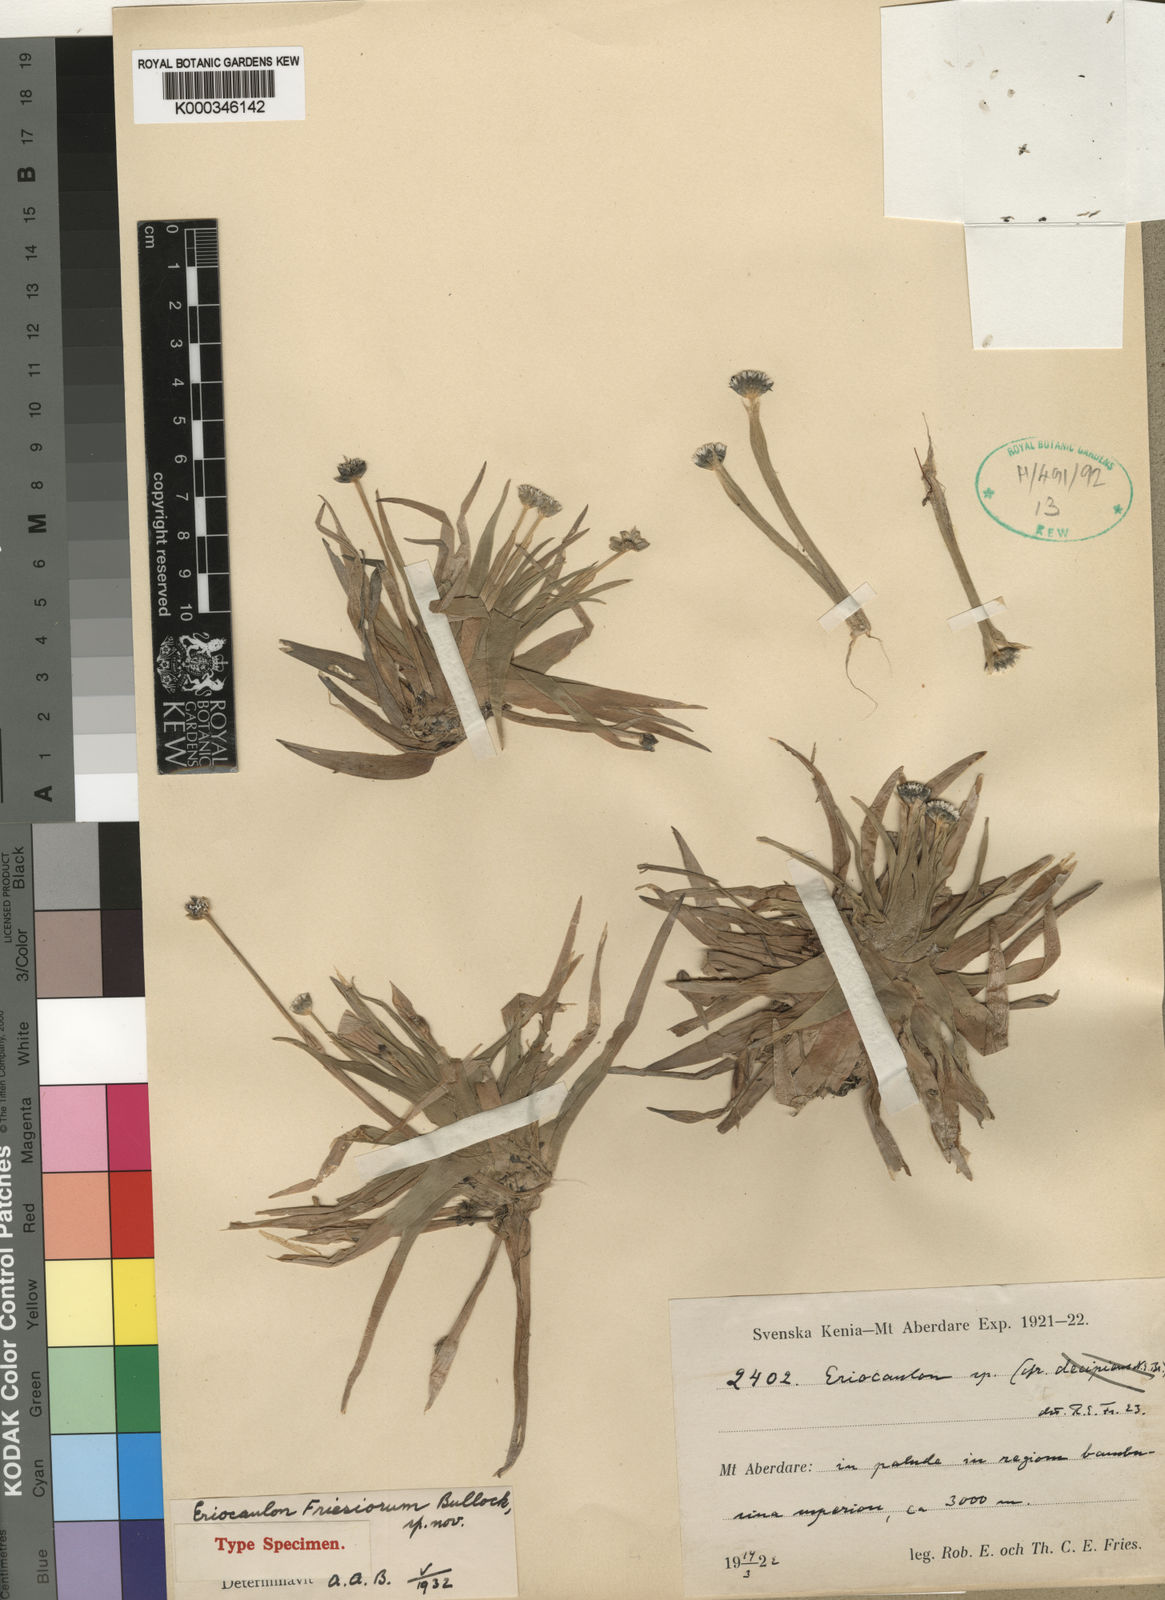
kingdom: Plantae
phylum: Tracheophyta
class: Liliopsida
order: Poales
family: Eriocaulaceae
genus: Eriocaulon
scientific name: Eriocaulon mesanthemoides
